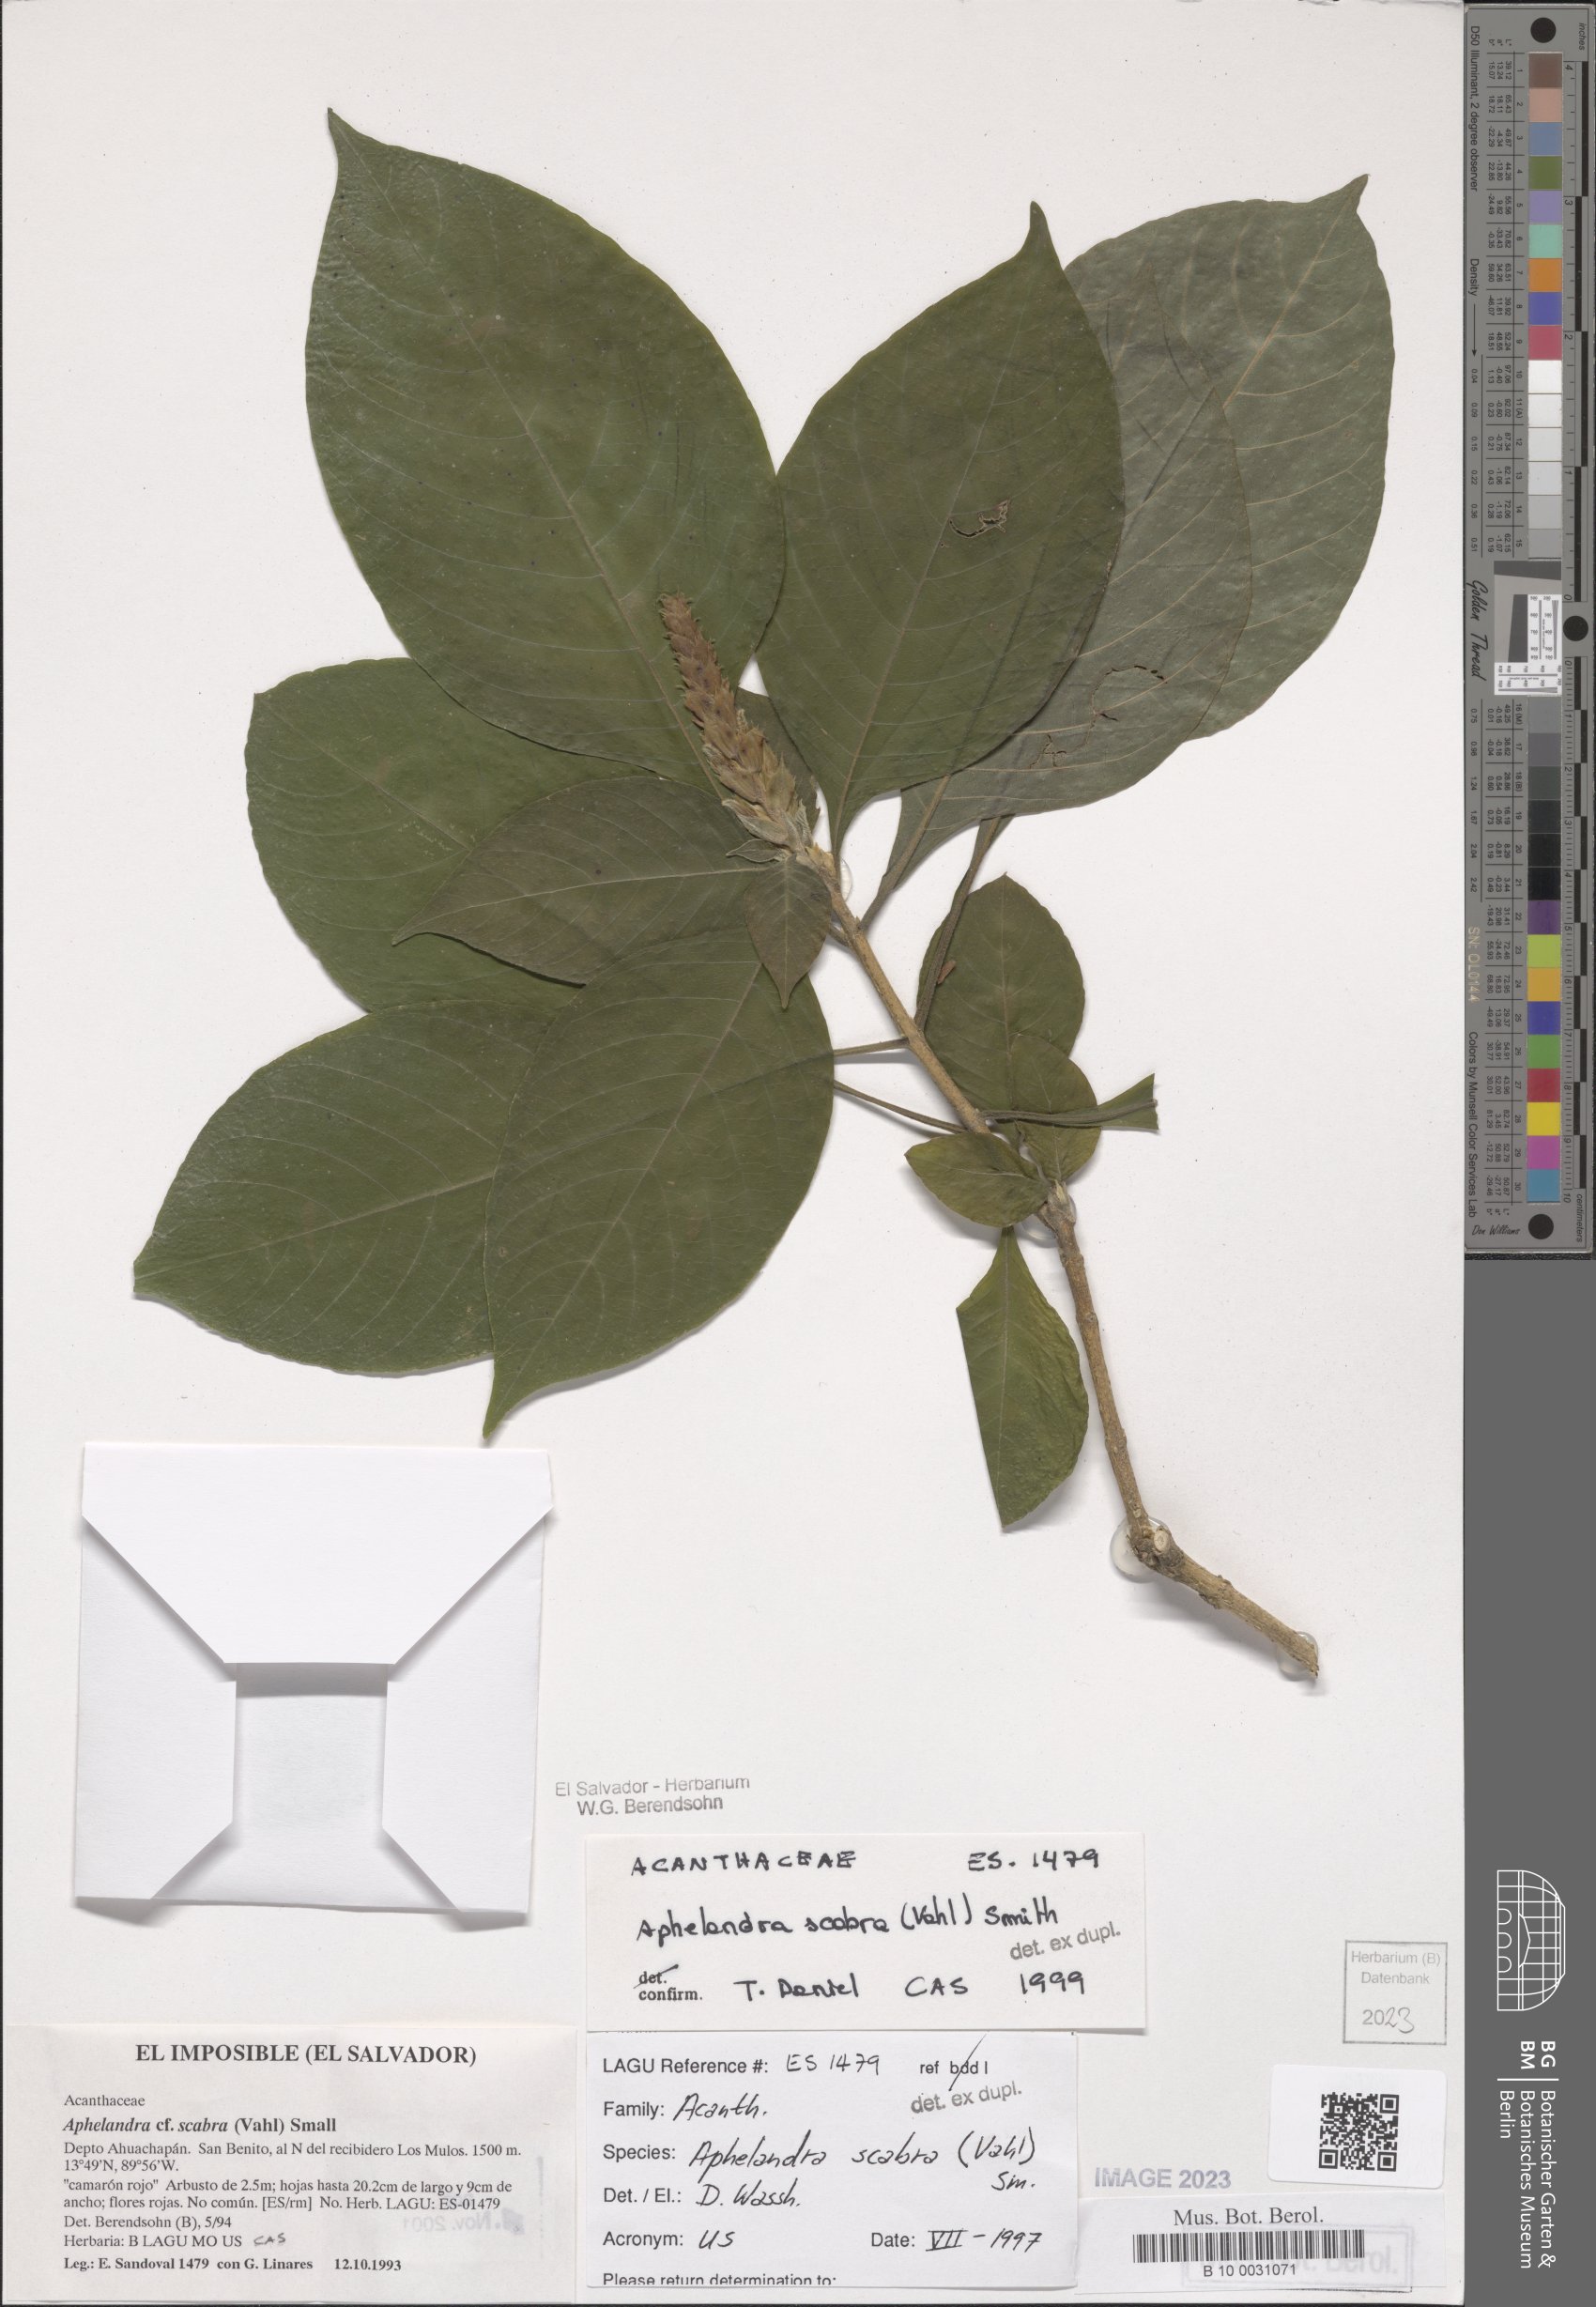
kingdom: Plantae
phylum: Tracheophyta
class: Magnoliopsida
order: Lamiales
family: Acanthaceae
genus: Aphelandra
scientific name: Aphelandra scabra
